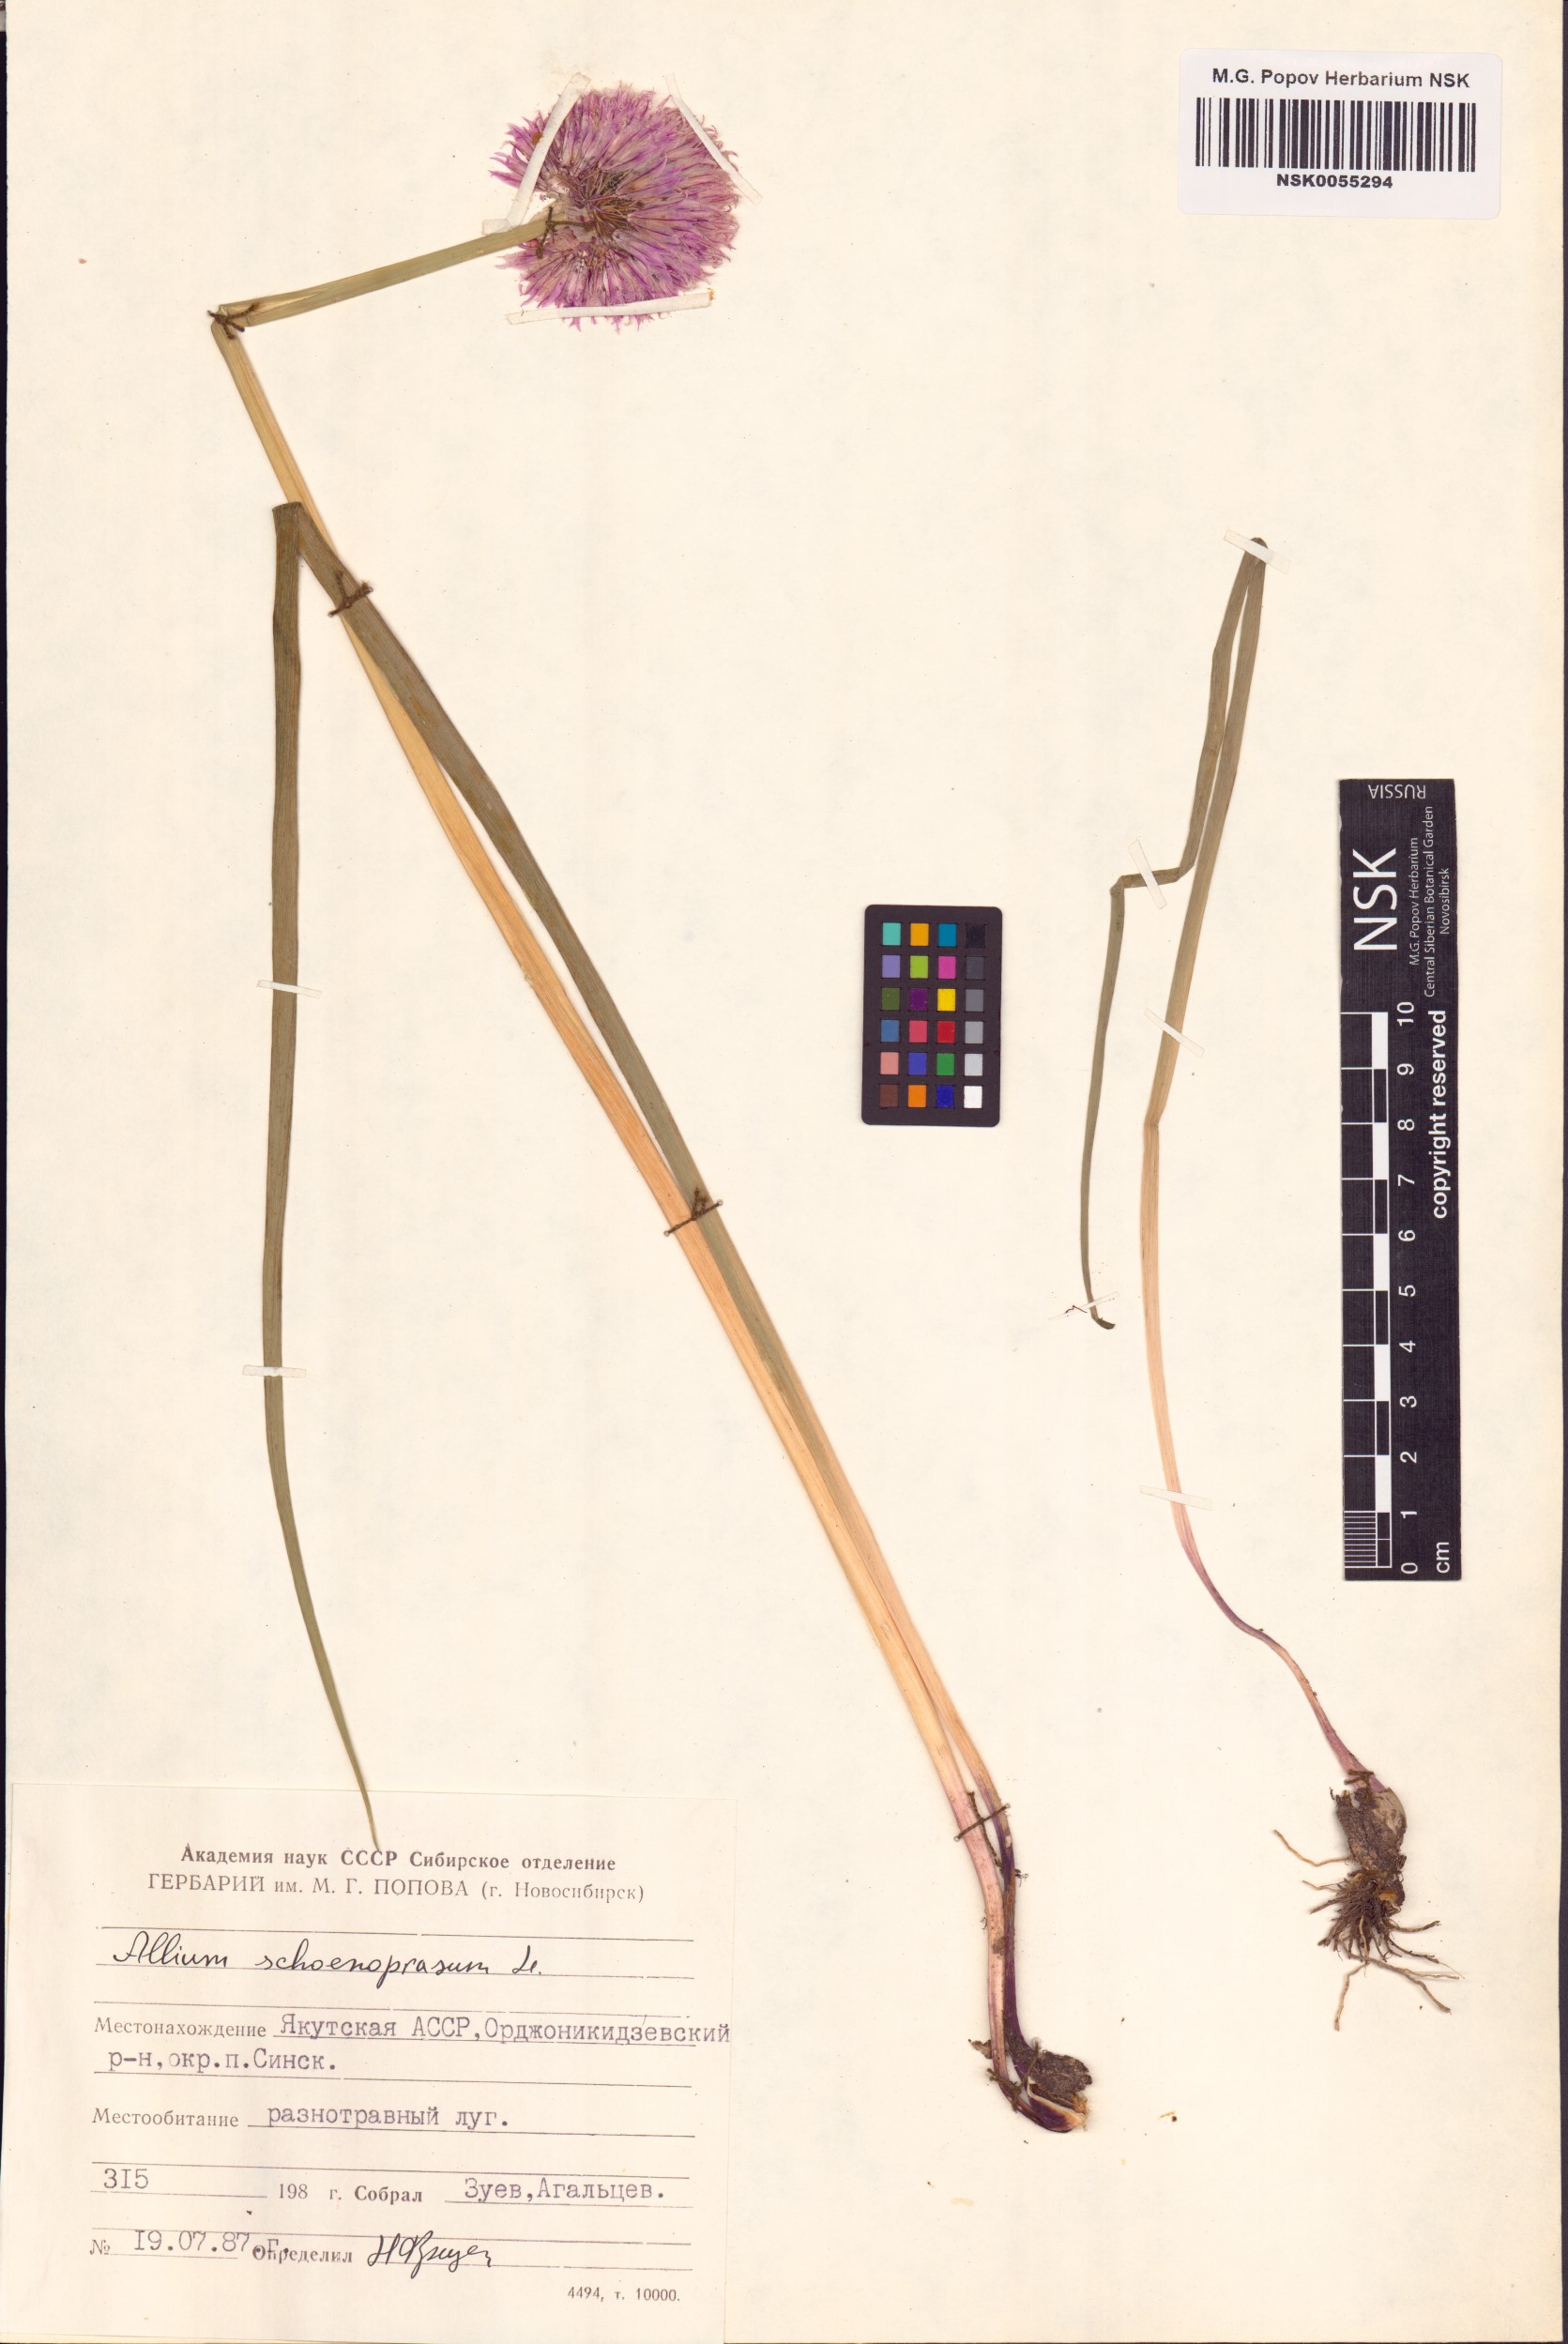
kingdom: Plantae
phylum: Tracheophyta
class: Liliopsida
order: Asparagales
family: Amaryllidaceae
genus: Allium
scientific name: Allium schoenoprasum
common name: Chives
